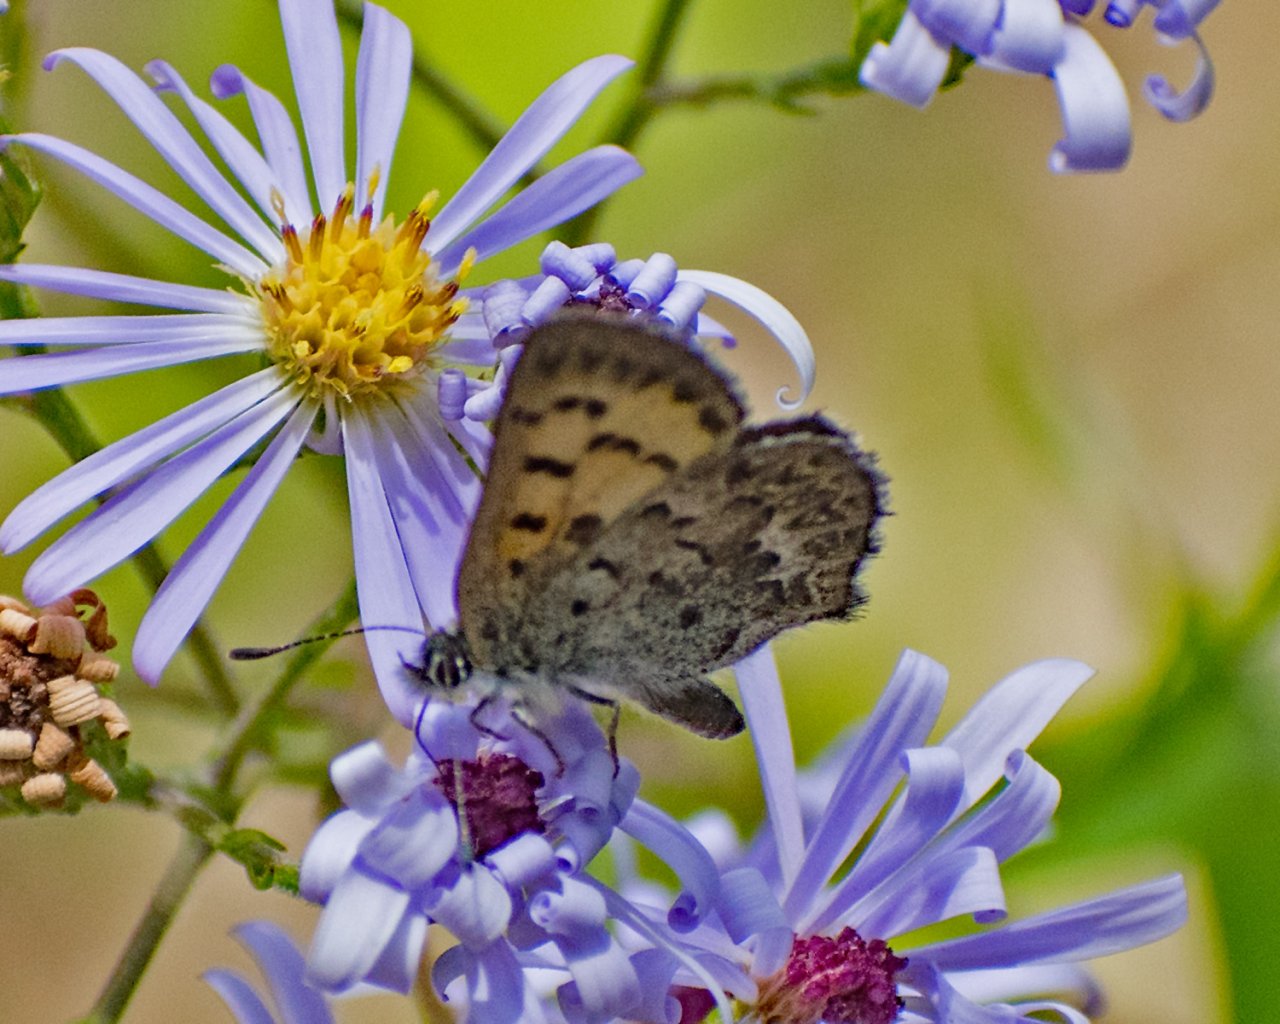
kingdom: Animalia
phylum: Arthropoda
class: Insecta
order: Lepidoptera
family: Lycaenidae
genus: Lycaena
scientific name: Lycaena mariposa
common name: Mariposa Copper
